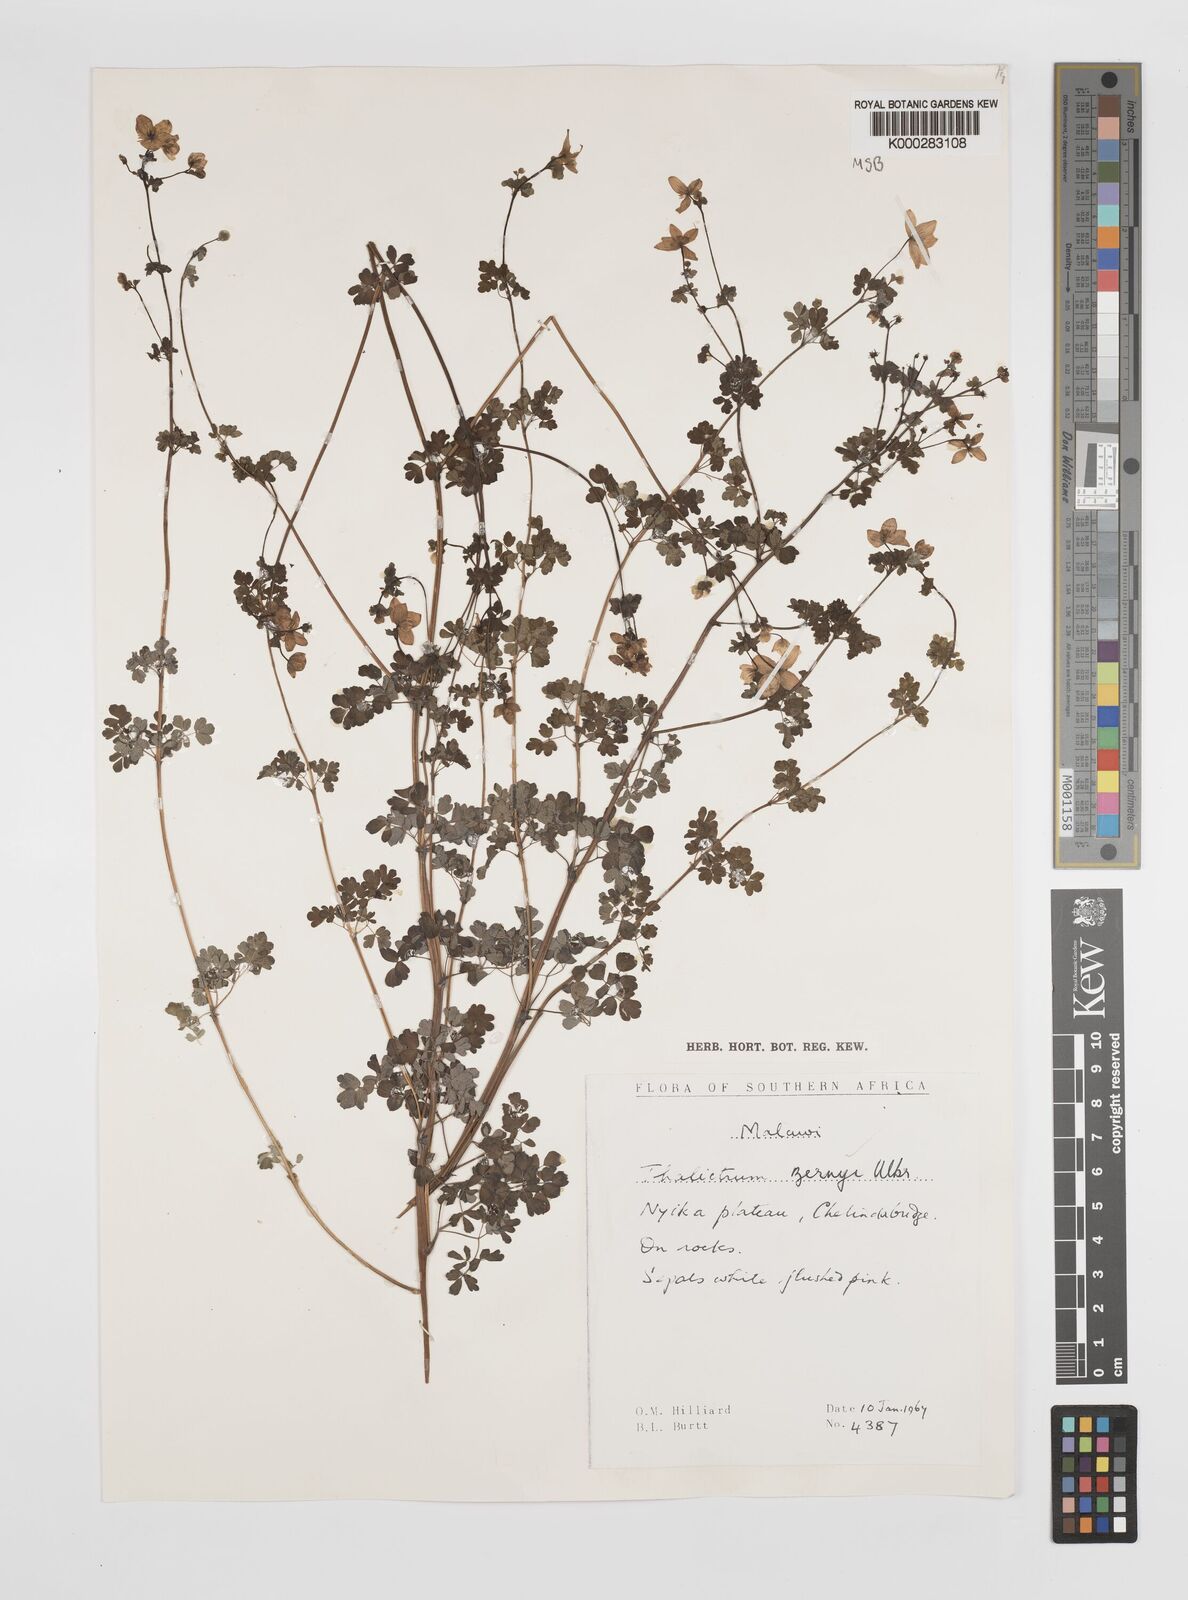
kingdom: Plantae
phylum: Tracheophyta
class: Magnoliopsida
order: Ranunculales
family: Ranunculaceae
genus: Thalictrum
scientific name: Thalictrum zernyi
